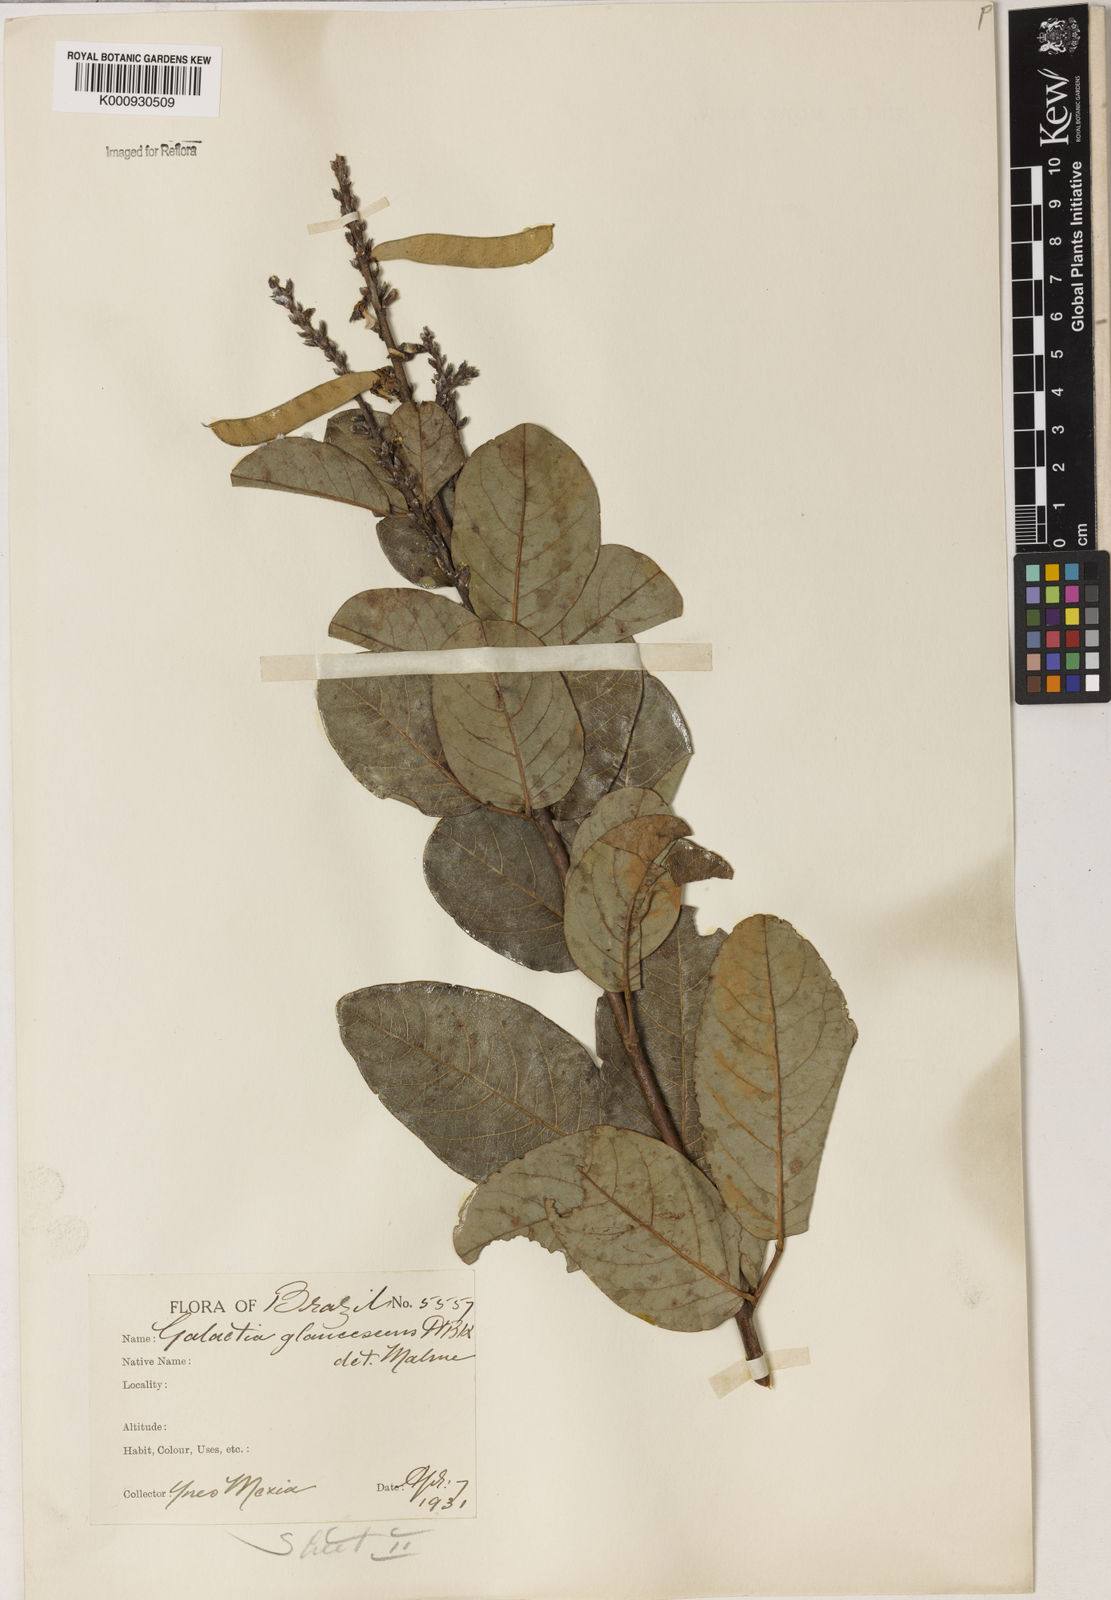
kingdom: Plantae
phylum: Tracheophyta
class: Magnoliopsida
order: Fabales
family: Fabaceae
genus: Galactia
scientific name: Galactia glaucescens
